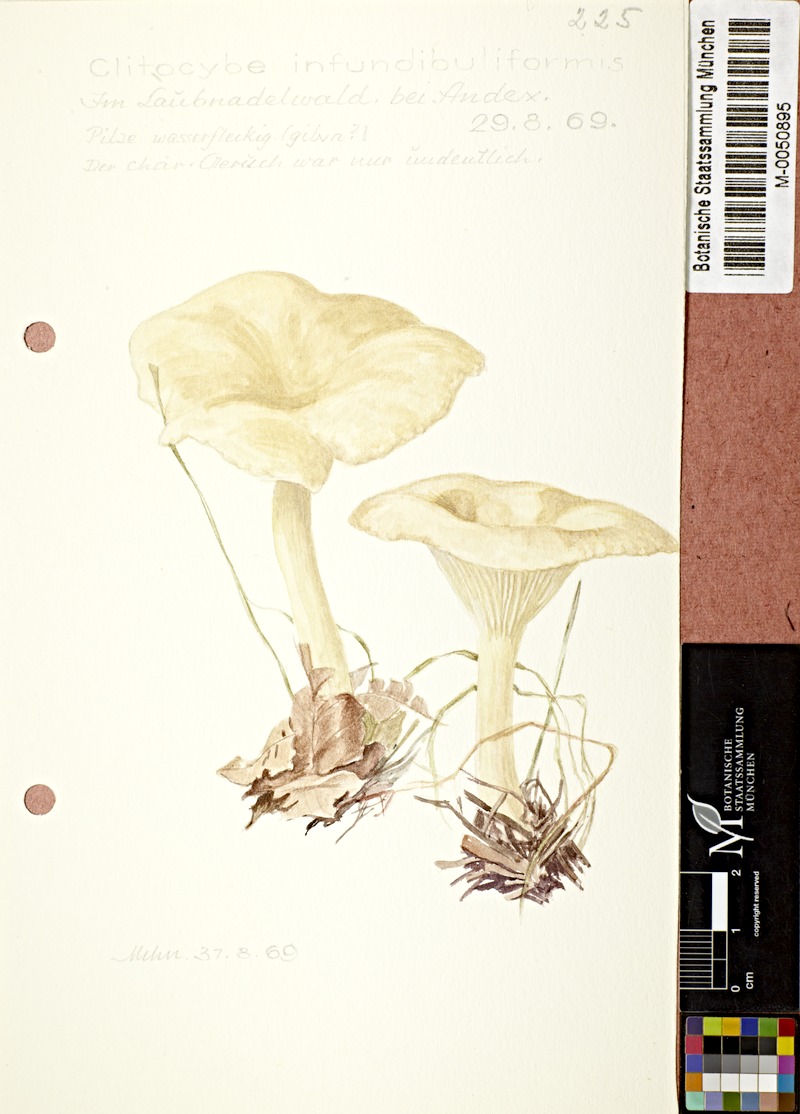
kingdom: Fungi
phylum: Basidiomycota
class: Agaricomycetes
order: Agaricales
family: Tricholomataceae
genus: Infundibulicybe
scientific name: Infundibulicybe gibba
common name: Common funnel
